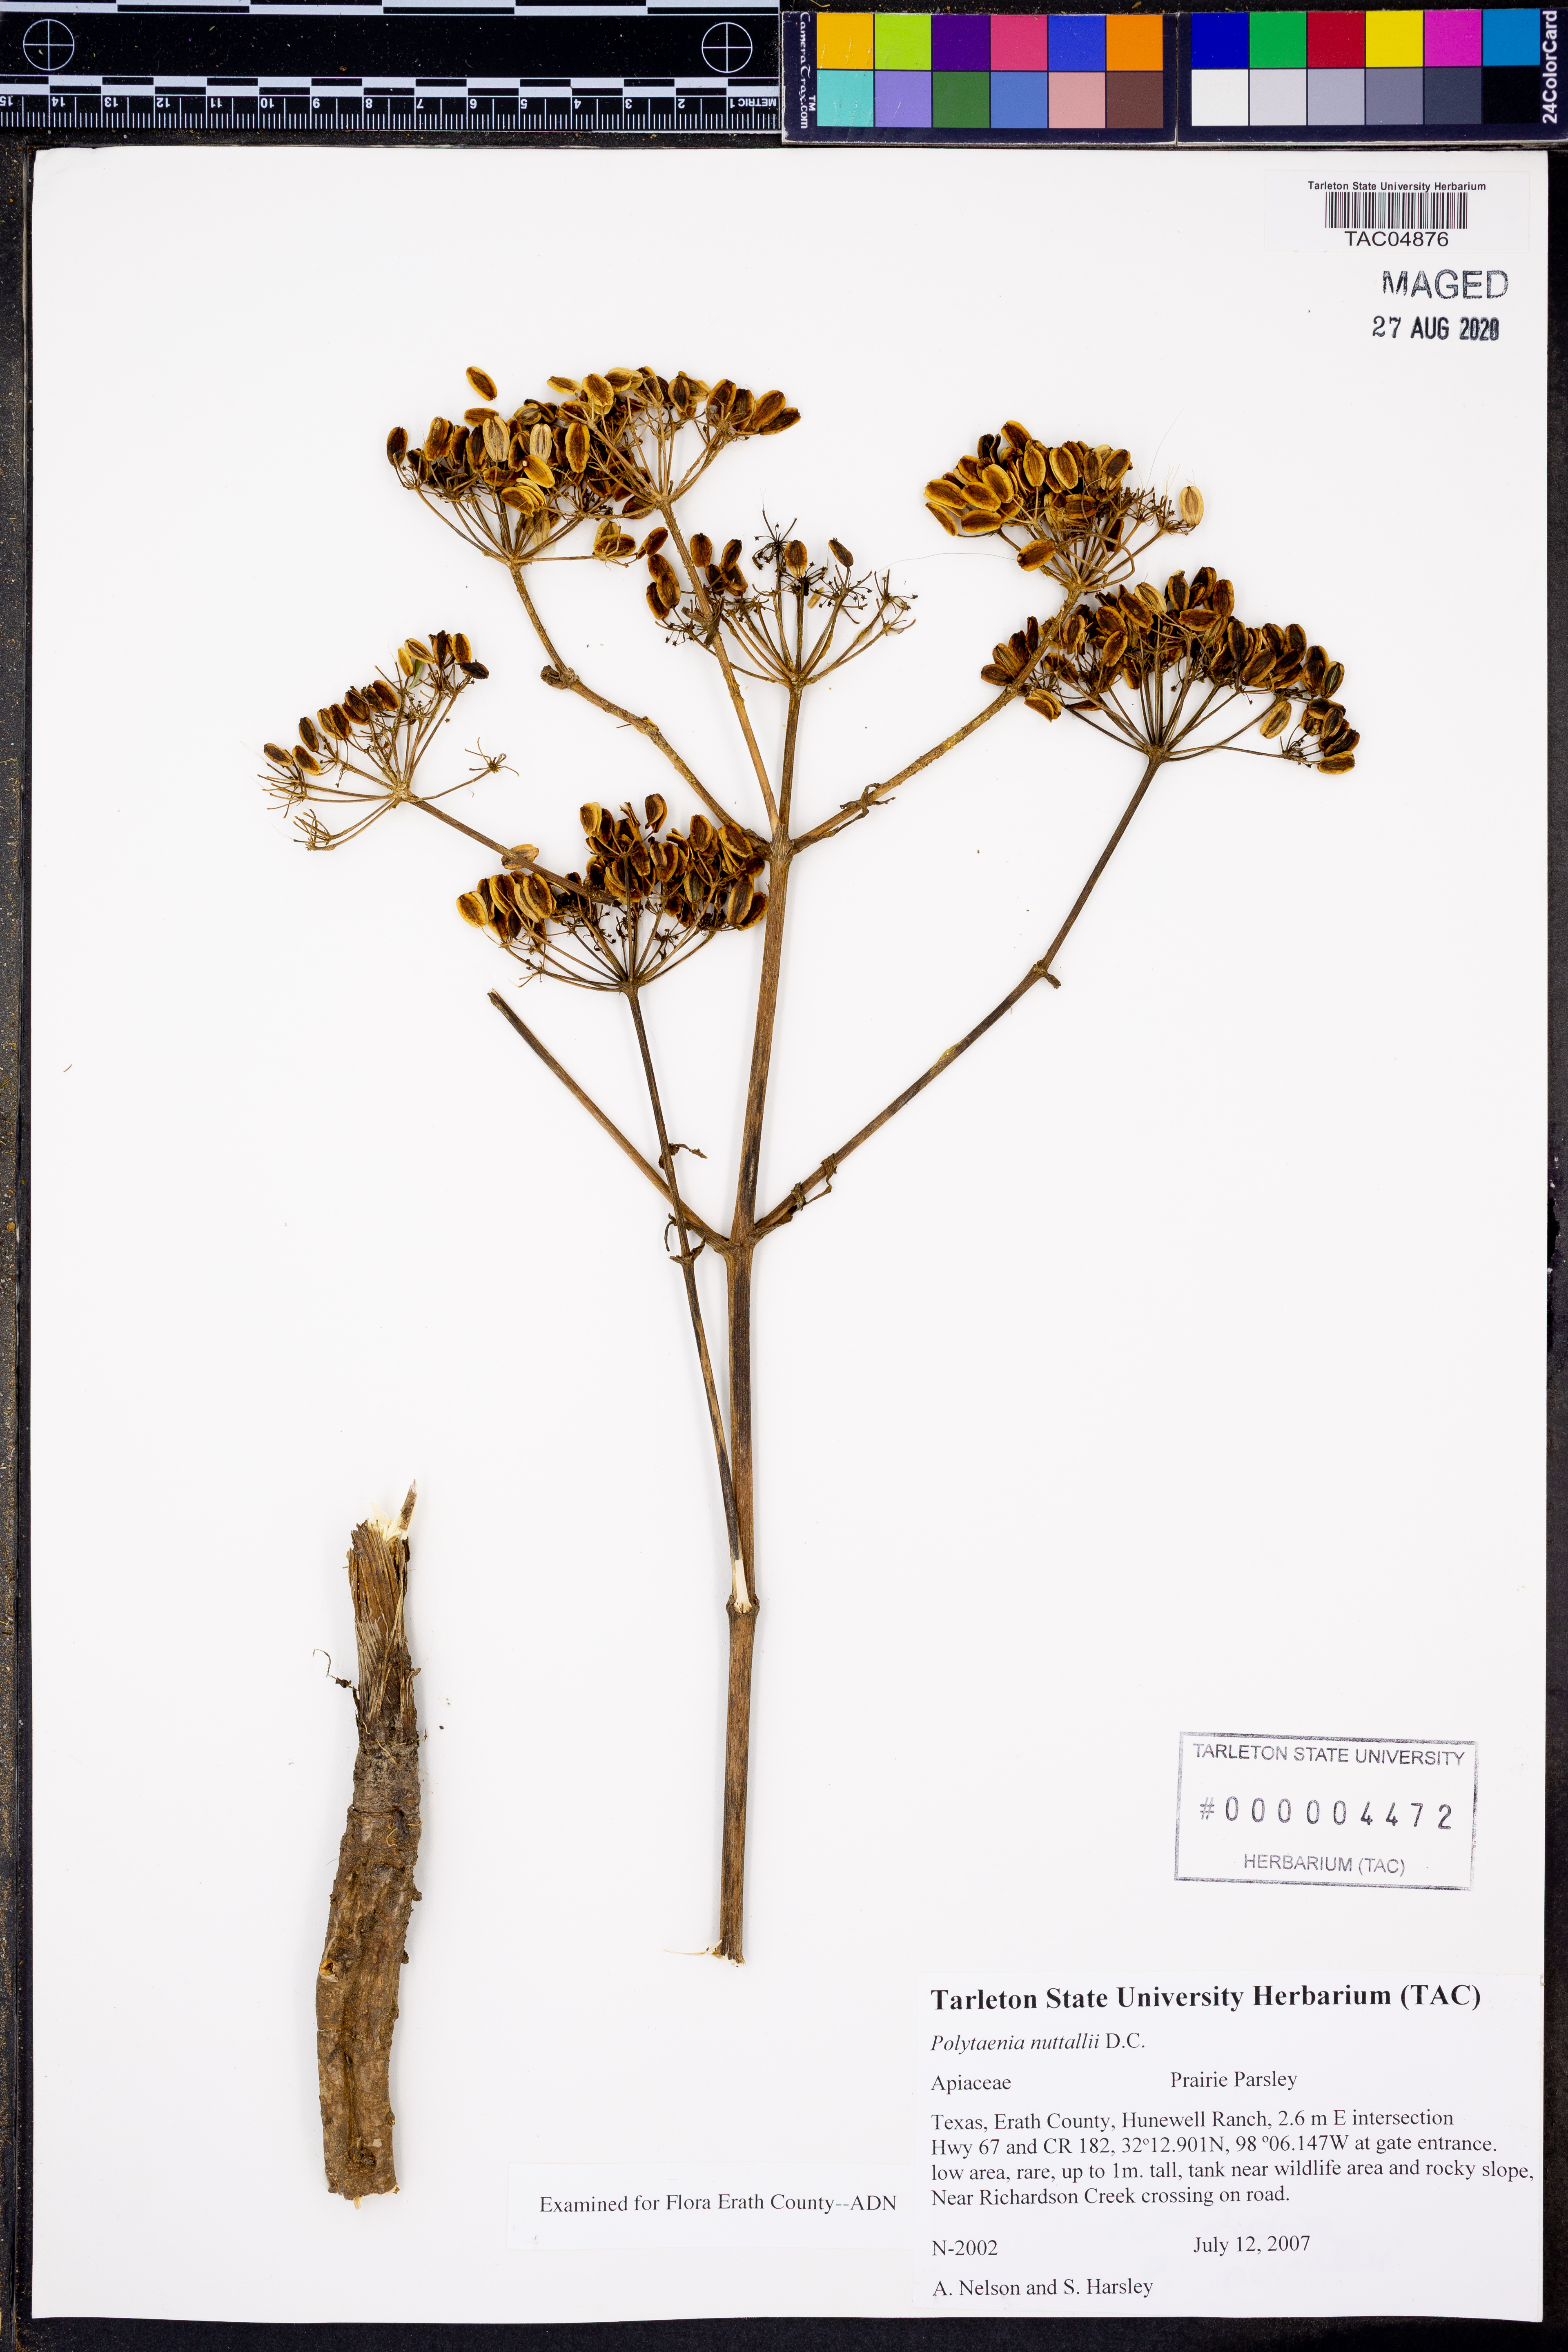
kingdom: Plantae
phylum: Tracheophyta
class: Magnoliopsida
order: Apiales
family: Apiaceae
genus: Polytaenia
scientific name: Polytaenia nuttallii
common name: Prairie-parsley
